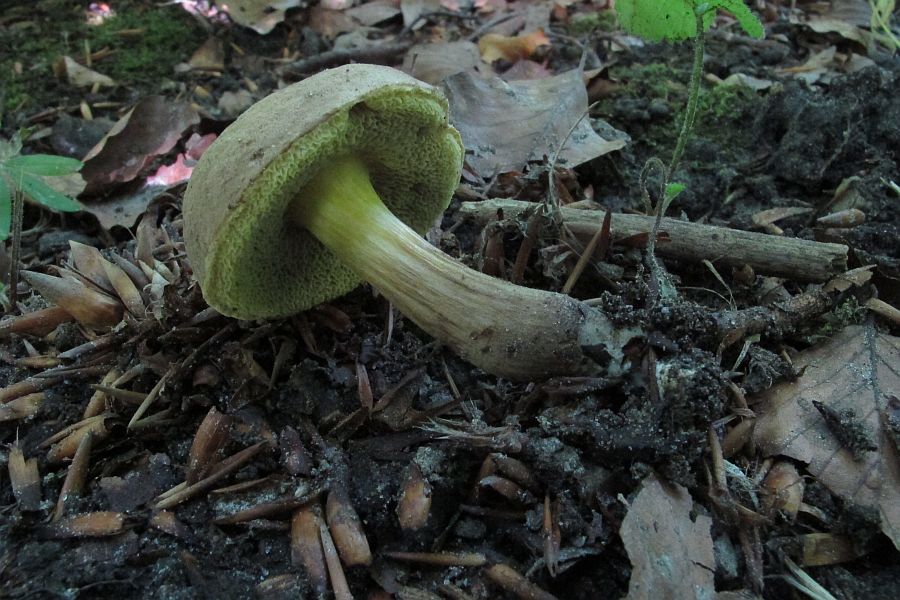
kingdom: Fungi
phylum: Basidiomycota
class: Agaricomycetes
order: Boletales
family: Boletaceae
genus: Xerocomellus
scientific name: Xerocomellus porosporus
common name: hvidsprukken rørhat
